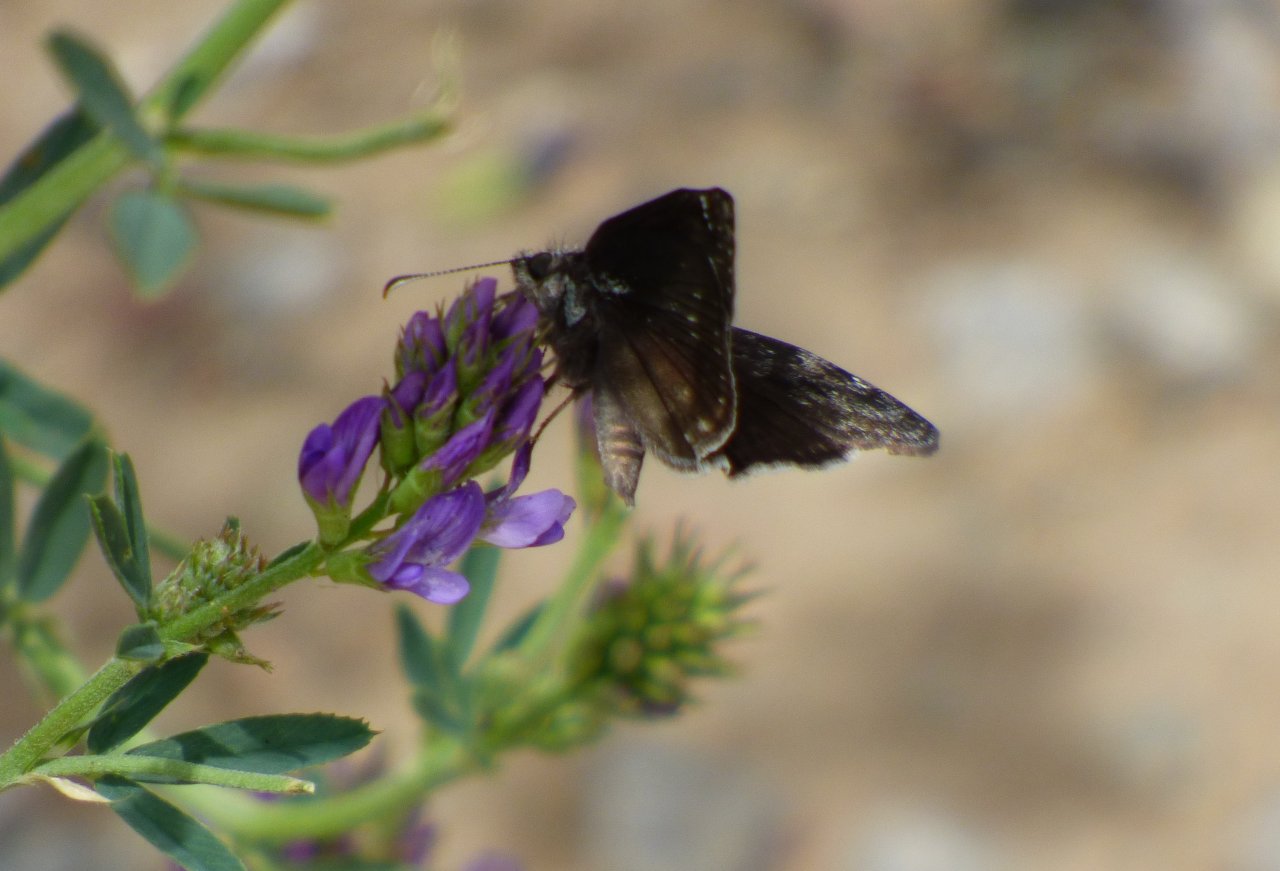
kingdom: Animalia
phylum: Arthropoda
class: Insecta
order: Lepidoptera
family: Hesperiidae
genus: Erynnis
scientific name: Erynnis pacuvius
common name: Pacuvius Duskywing
